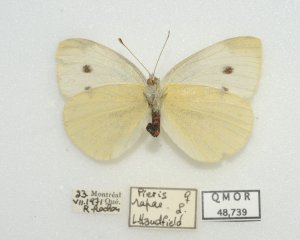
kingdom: Animalia
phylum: Arthropoda
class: Insecta
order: Lepidoptera
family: Pieridae
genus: Pieris
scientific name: Pieris rapae
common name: Cabbage White
